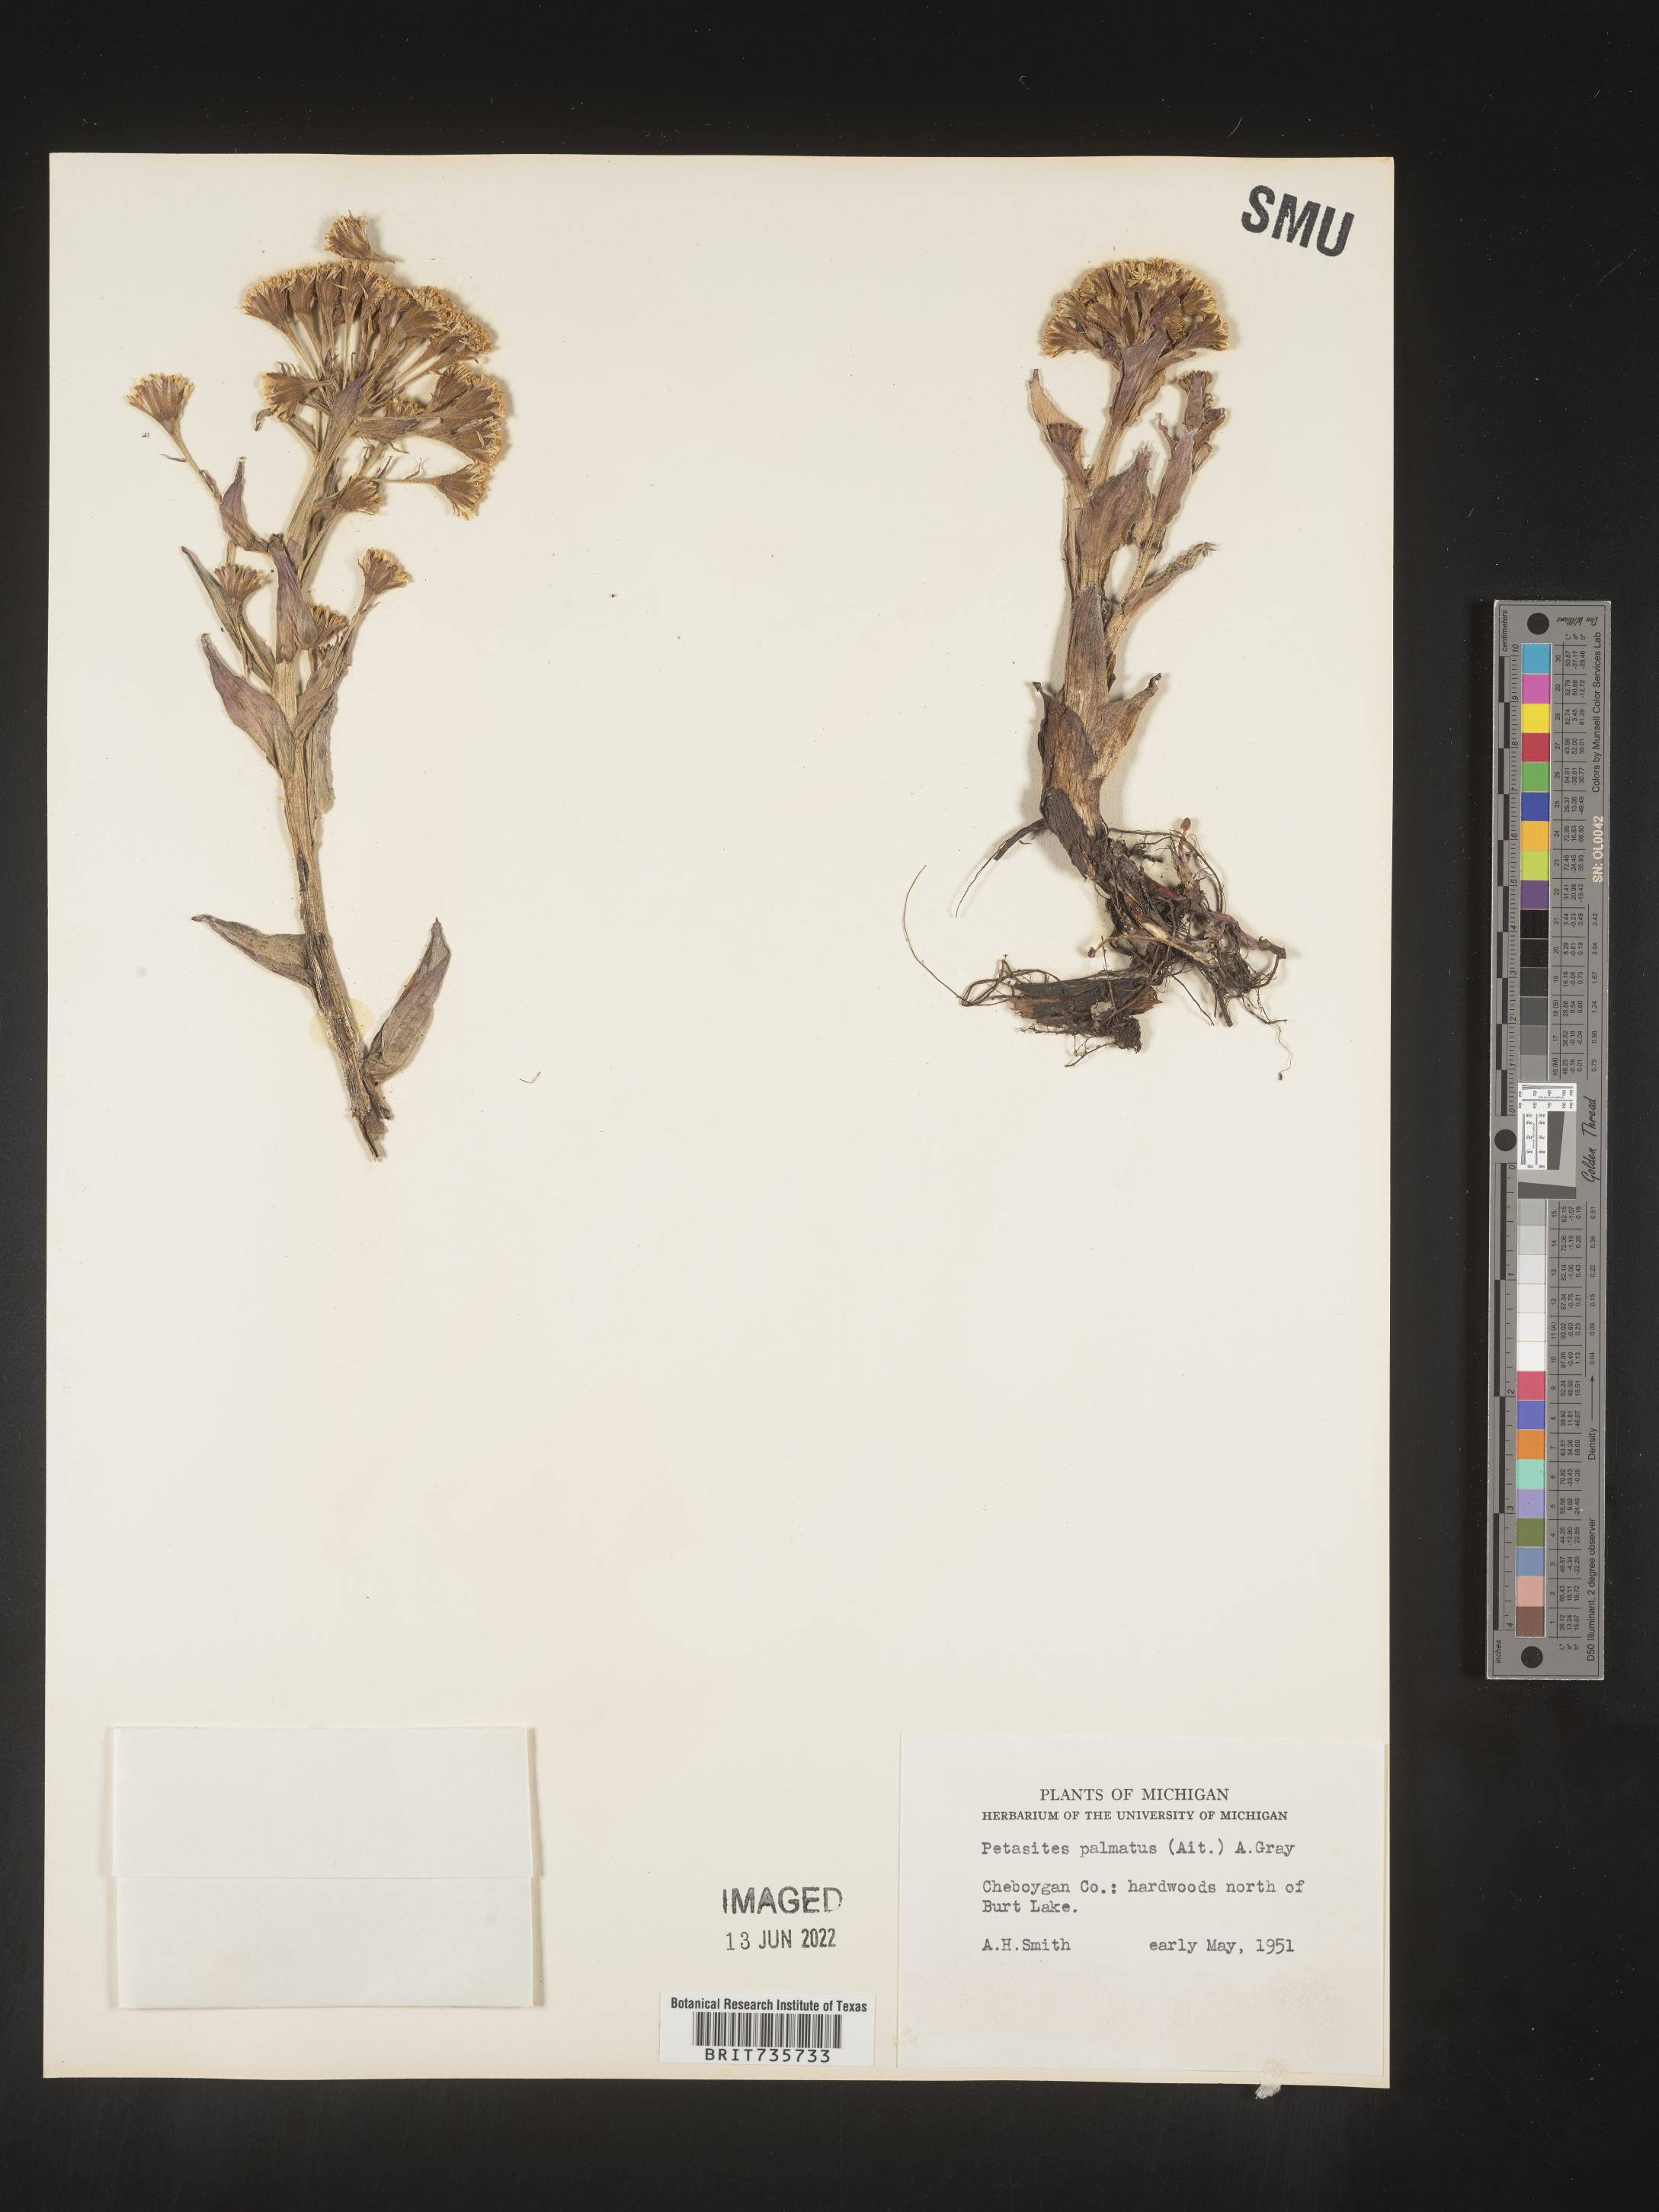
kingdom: Plantae
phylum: Tracheophyta
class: Magnoliopsida
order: Asterales
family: Asteraceae
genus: Petasites
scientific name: Petasites frigidus
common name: Arctic butterbur
